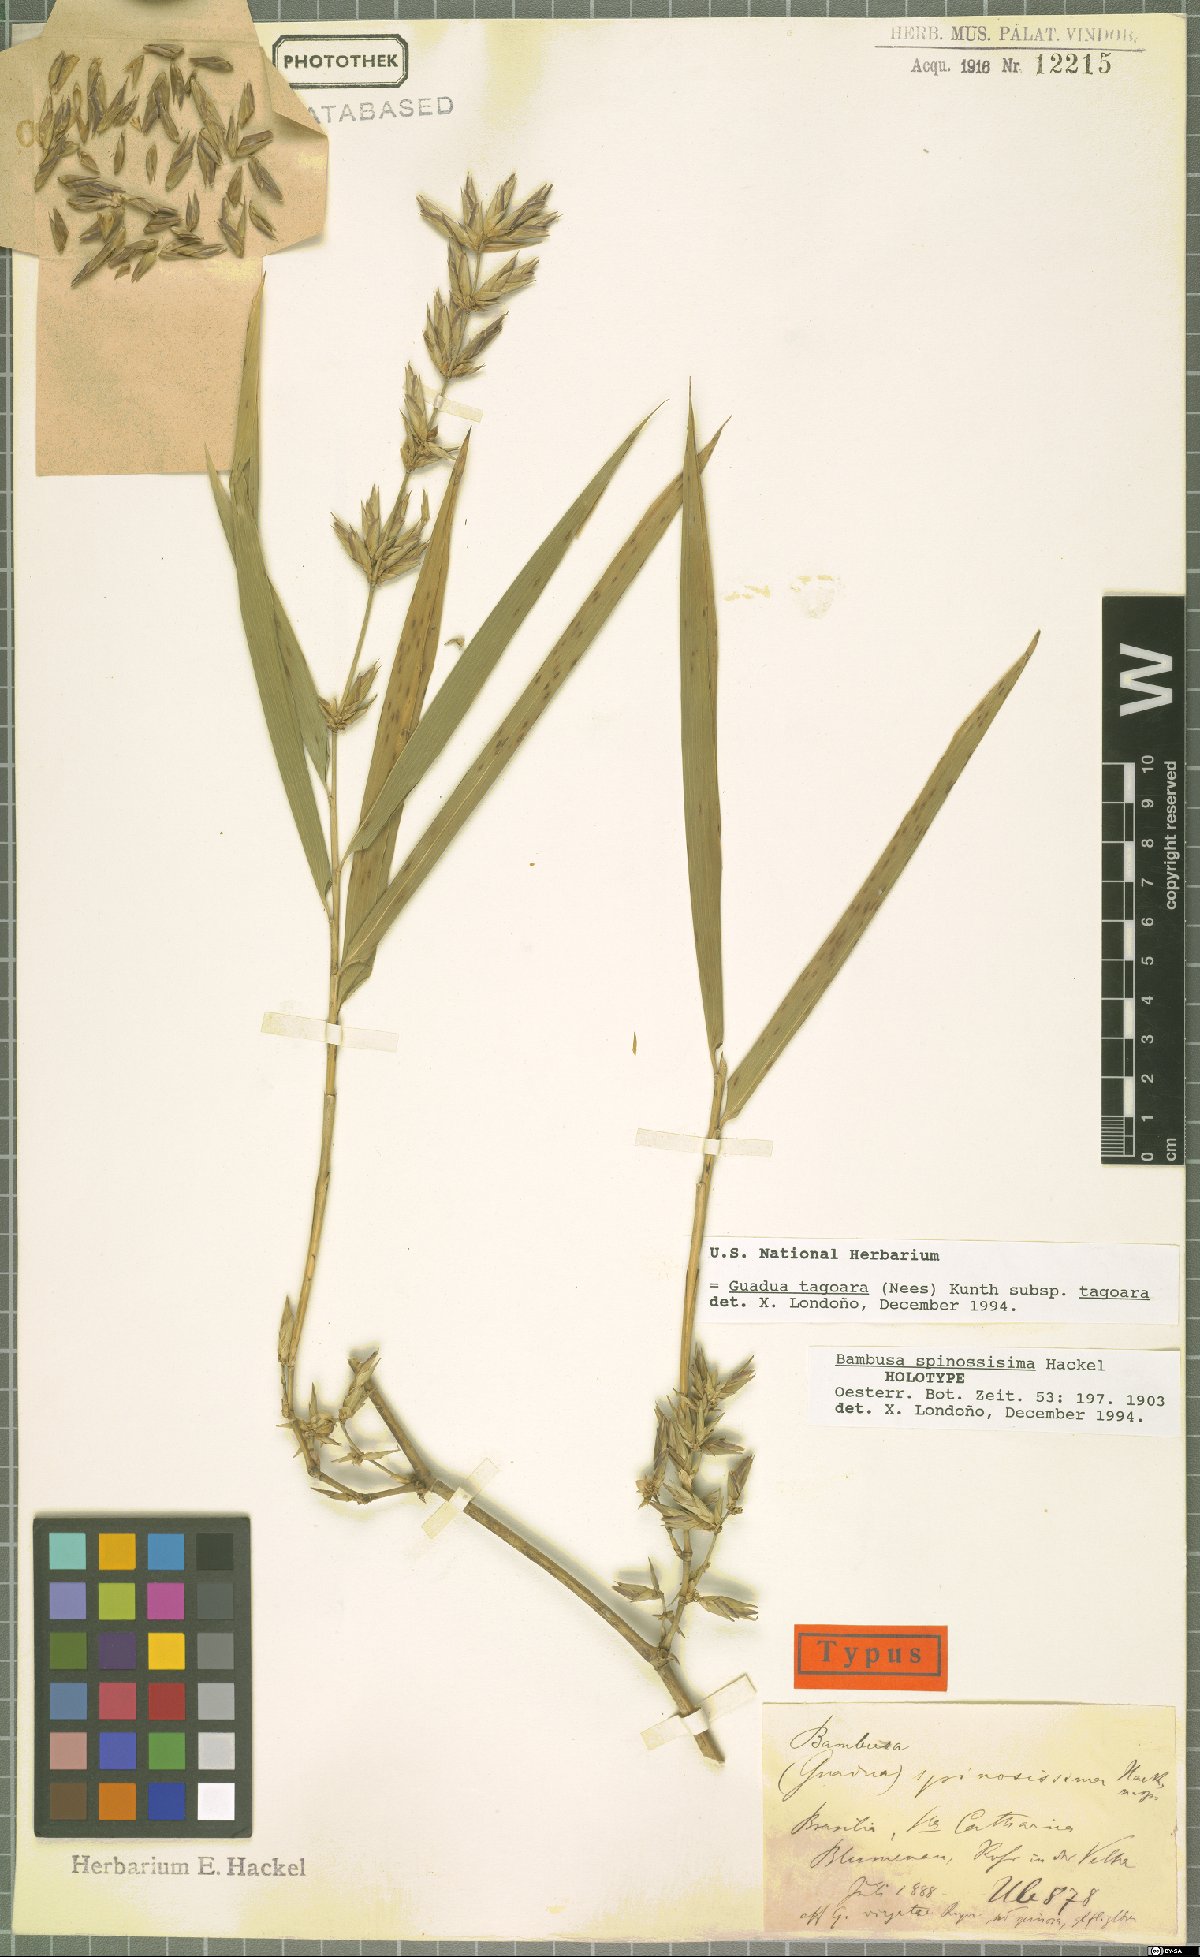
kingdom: Plantae
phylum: Tracheophyta
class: Liliopsida
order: Poales
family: Poaceae
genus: Guadua
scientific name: Guadua tagoara
